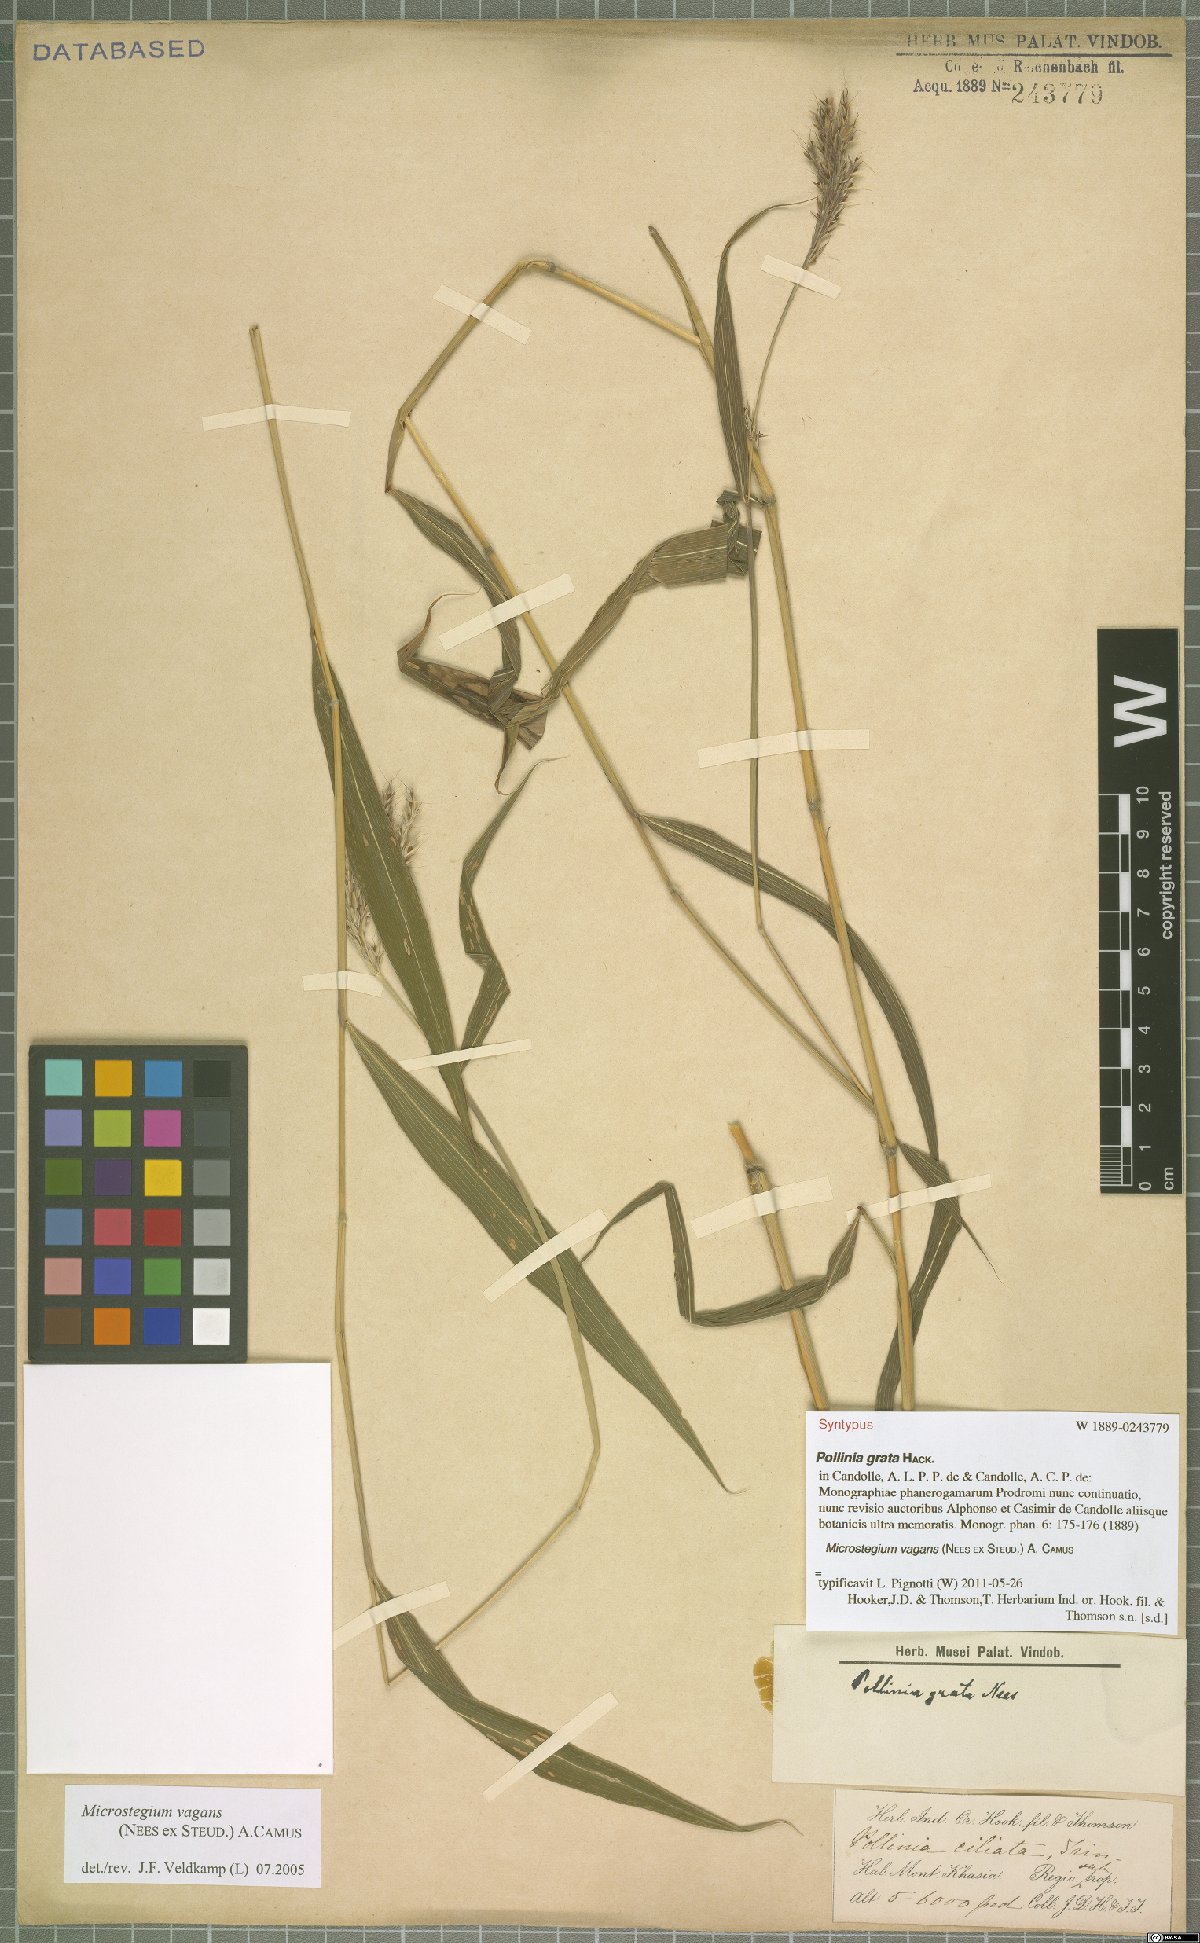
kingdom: Plantae
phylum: Tracheophyta
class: Liliopsida
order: Poales
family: Poaceae
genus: Microstegium
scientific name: Microstegium fasciculatum
